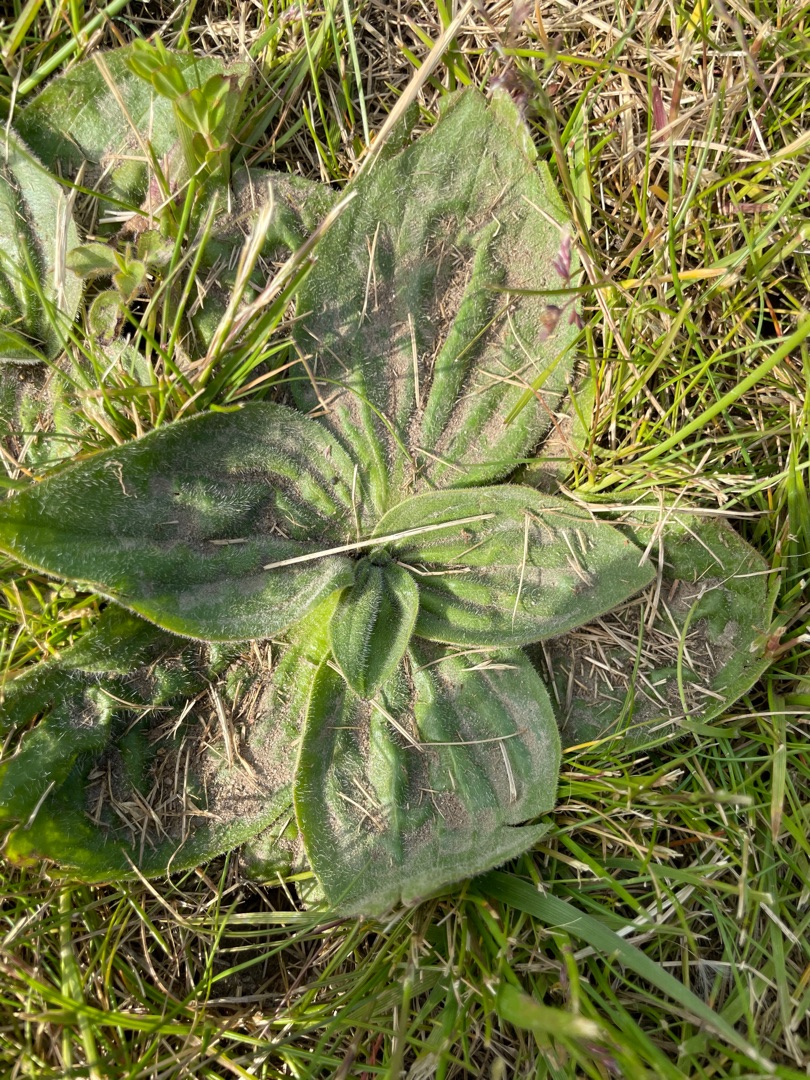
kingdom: Plantae
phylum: Tracheophyta
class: Magnoliopsida
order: Lamiales
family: Plantaginaceae
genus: Plantago
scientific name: Plantago media
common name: Dunet vejbred
